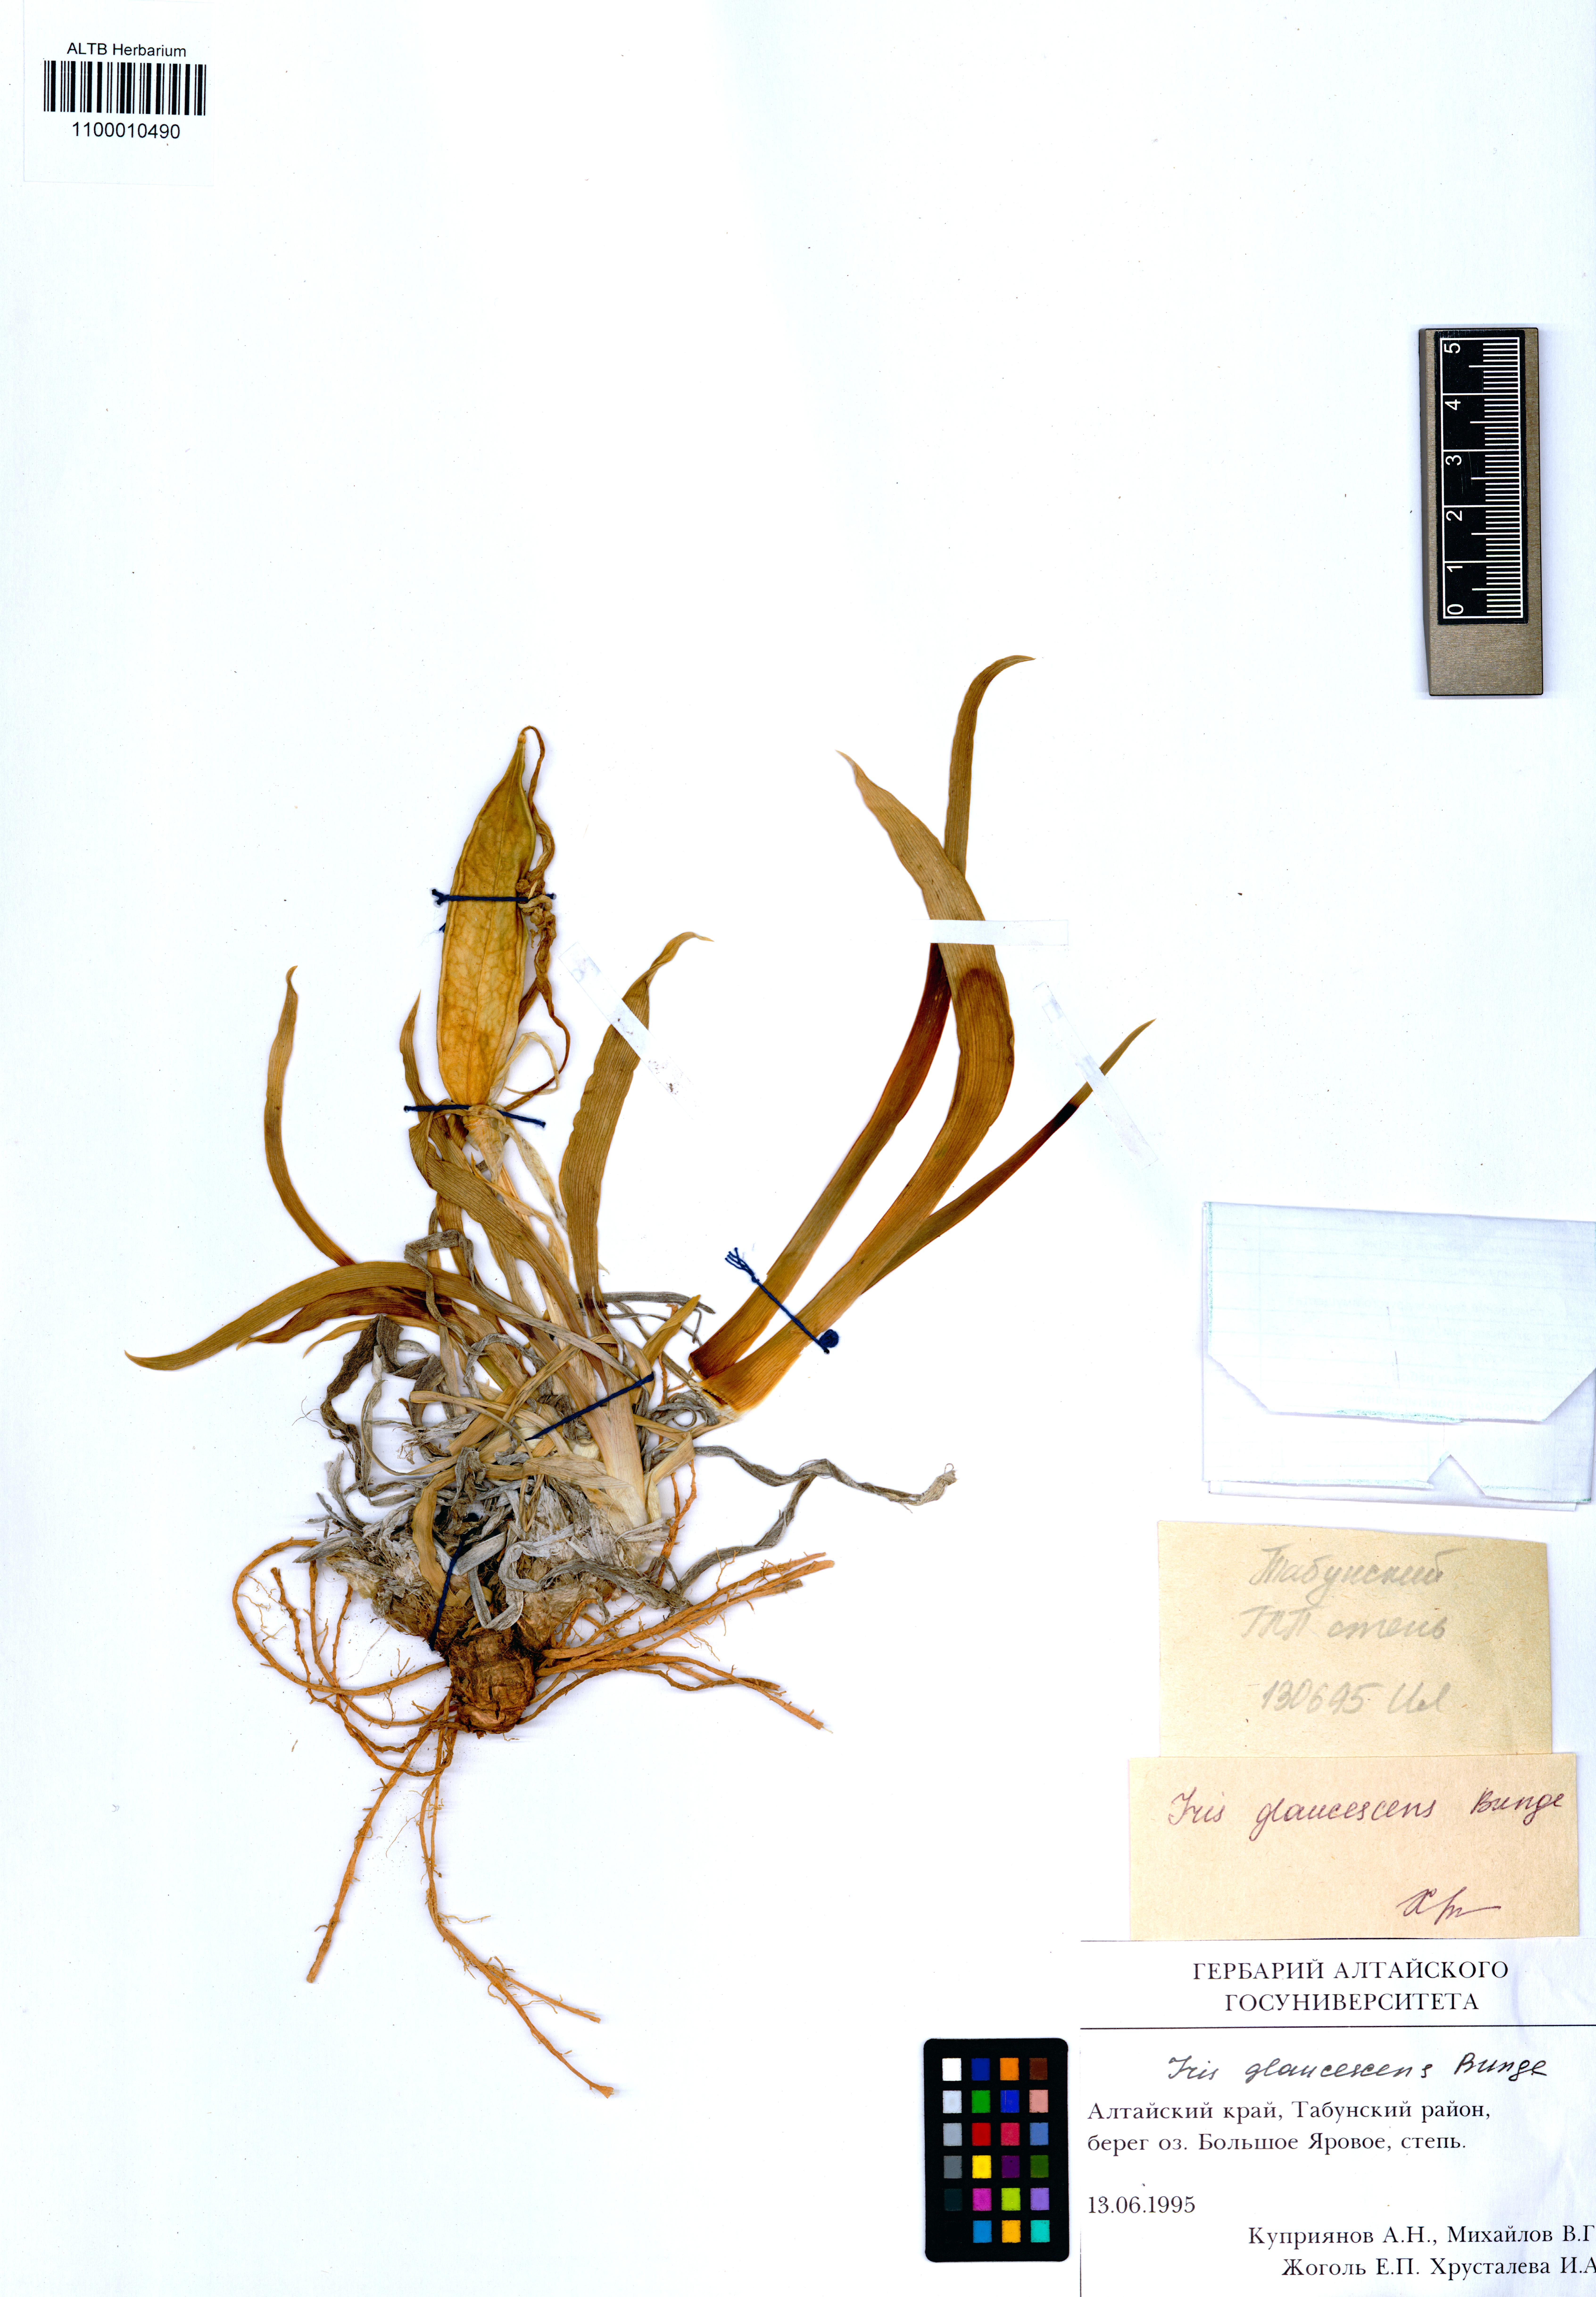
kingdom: Plantae
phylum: Tracheophyta
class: Liliopsida
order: Asparagales
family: Iridaceae
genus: Iris
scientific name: Iris glaucescens
